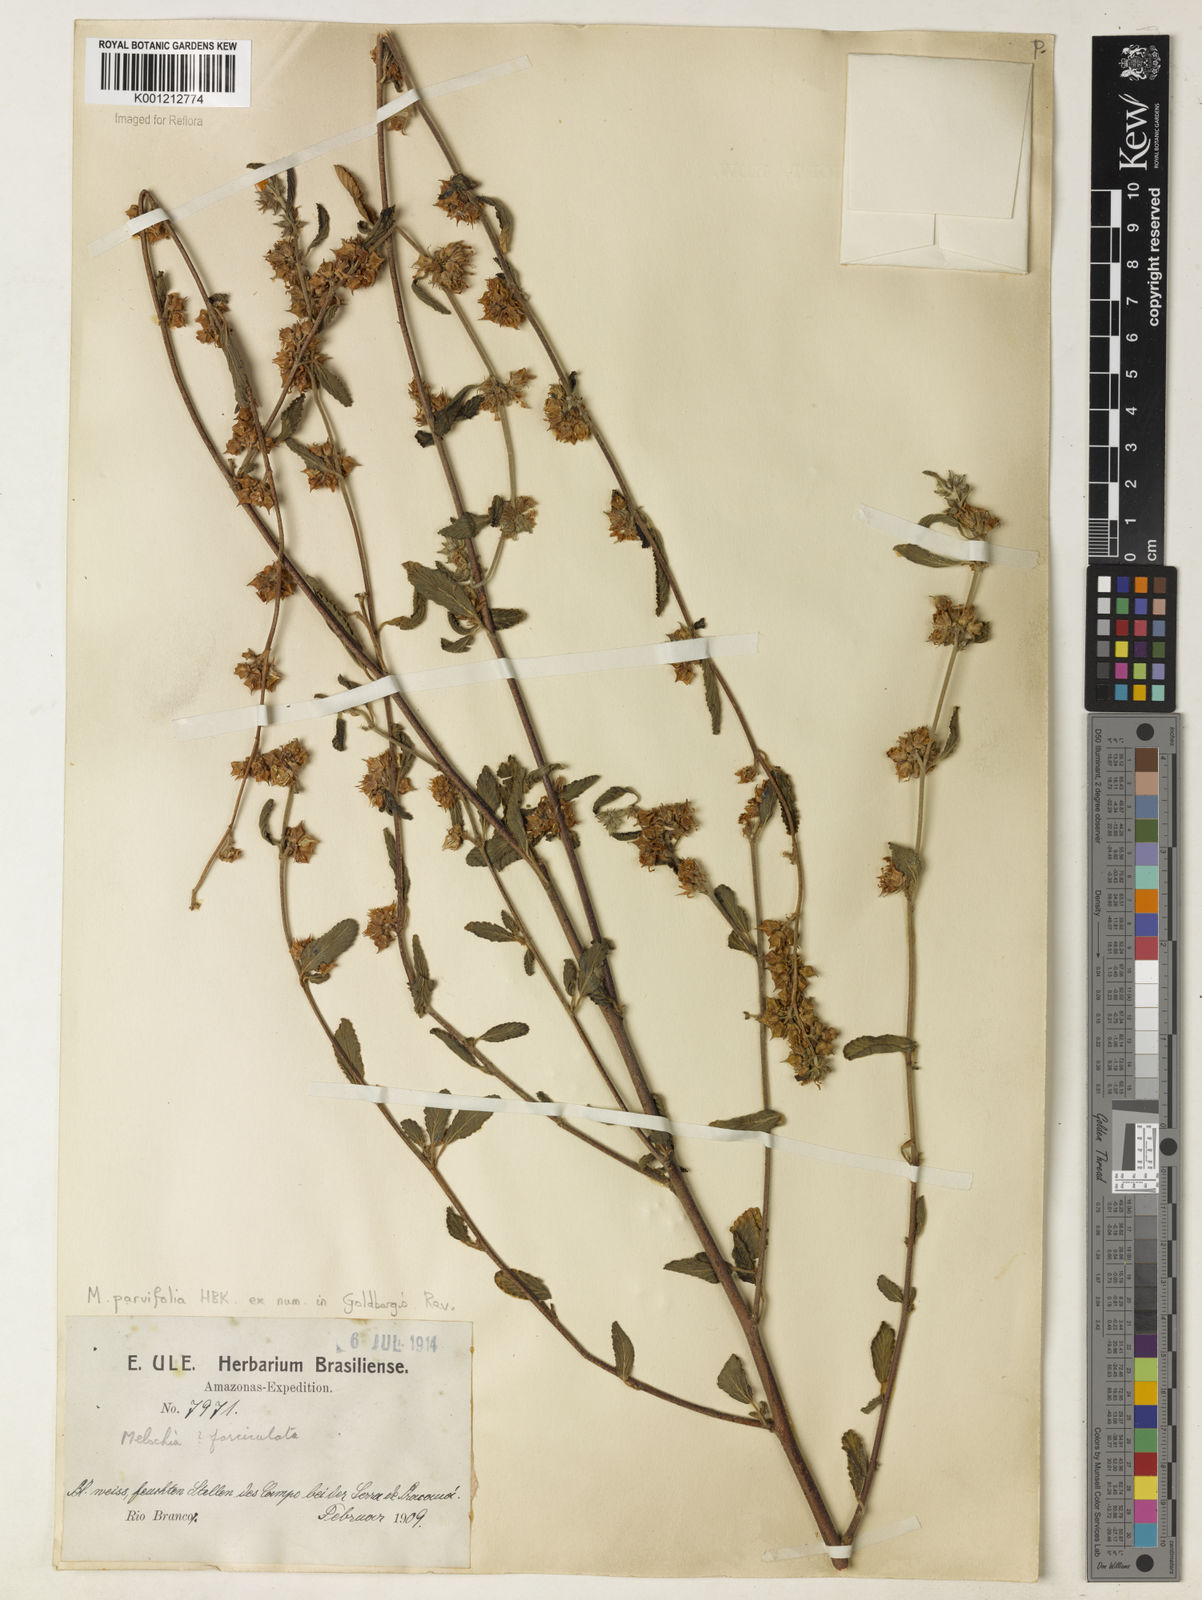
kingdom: Plantae
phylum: Tracheophyta
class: Magnoliopsida
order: Malvales
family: Malvaceae
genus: Melochia
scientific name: Melochia
